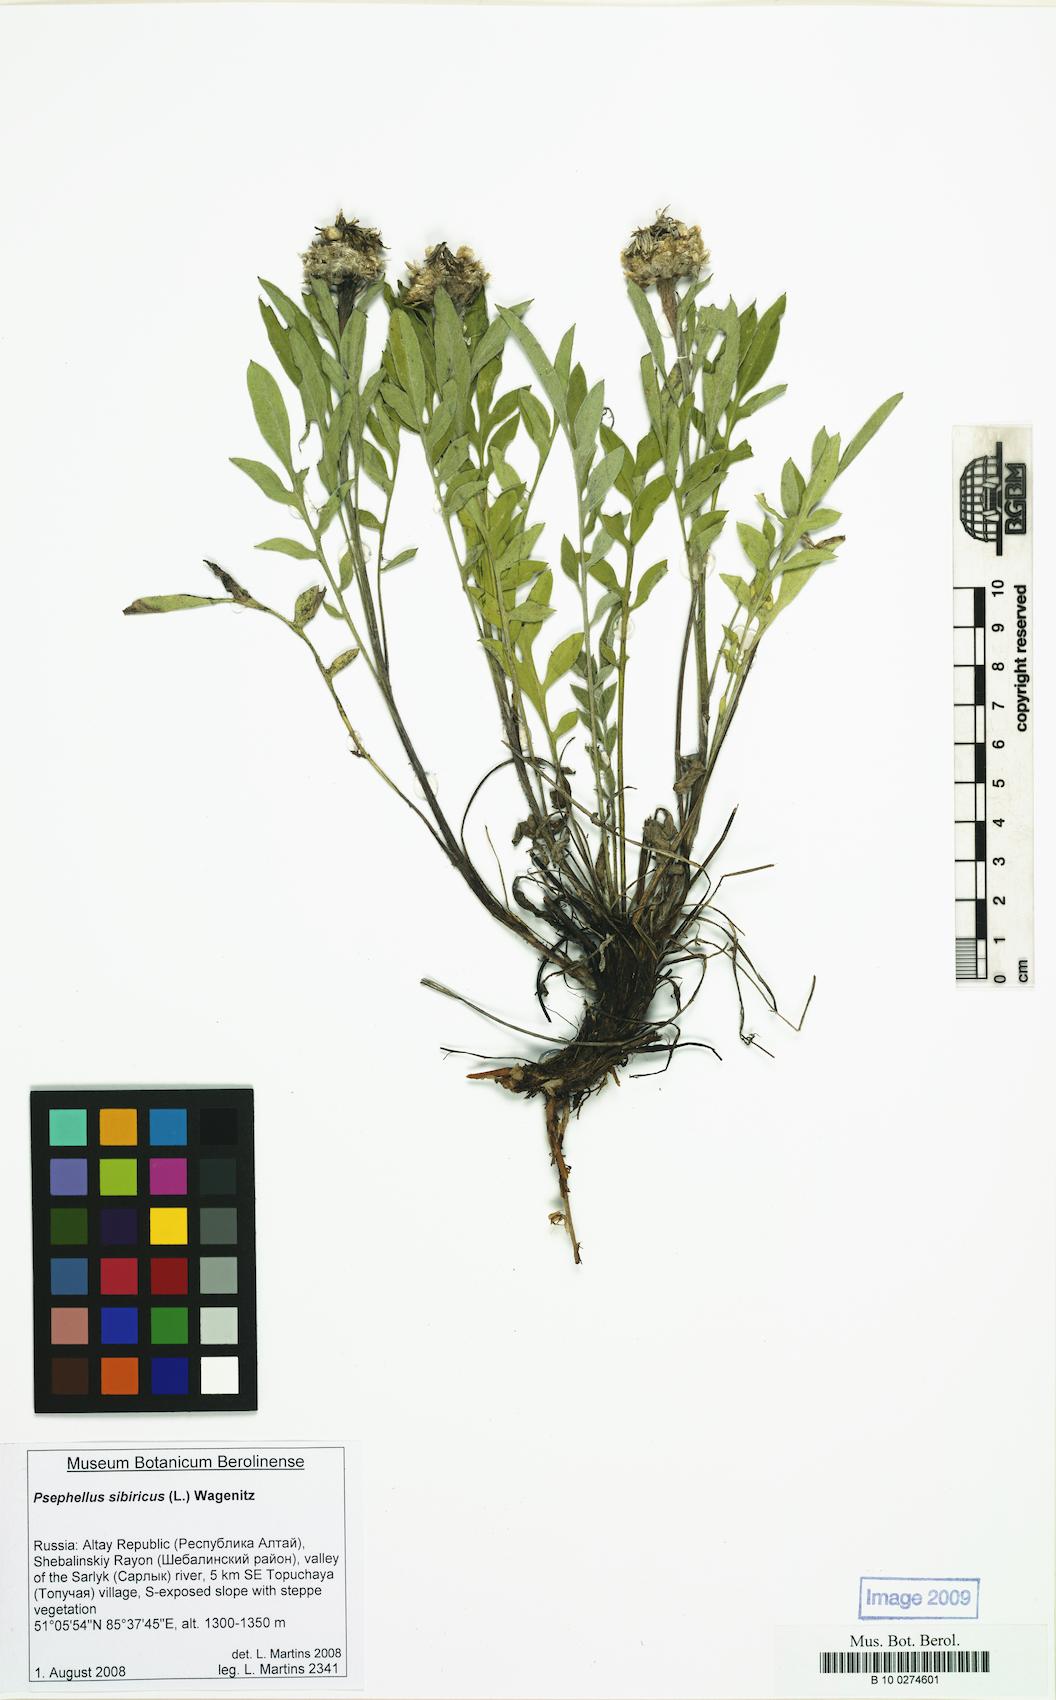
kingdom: Plantae
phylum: Tracheophyta
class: Magnoliopsida
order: Asterales
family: Asteraceae
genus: Psephellus
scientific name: Psephellus sibiricus
